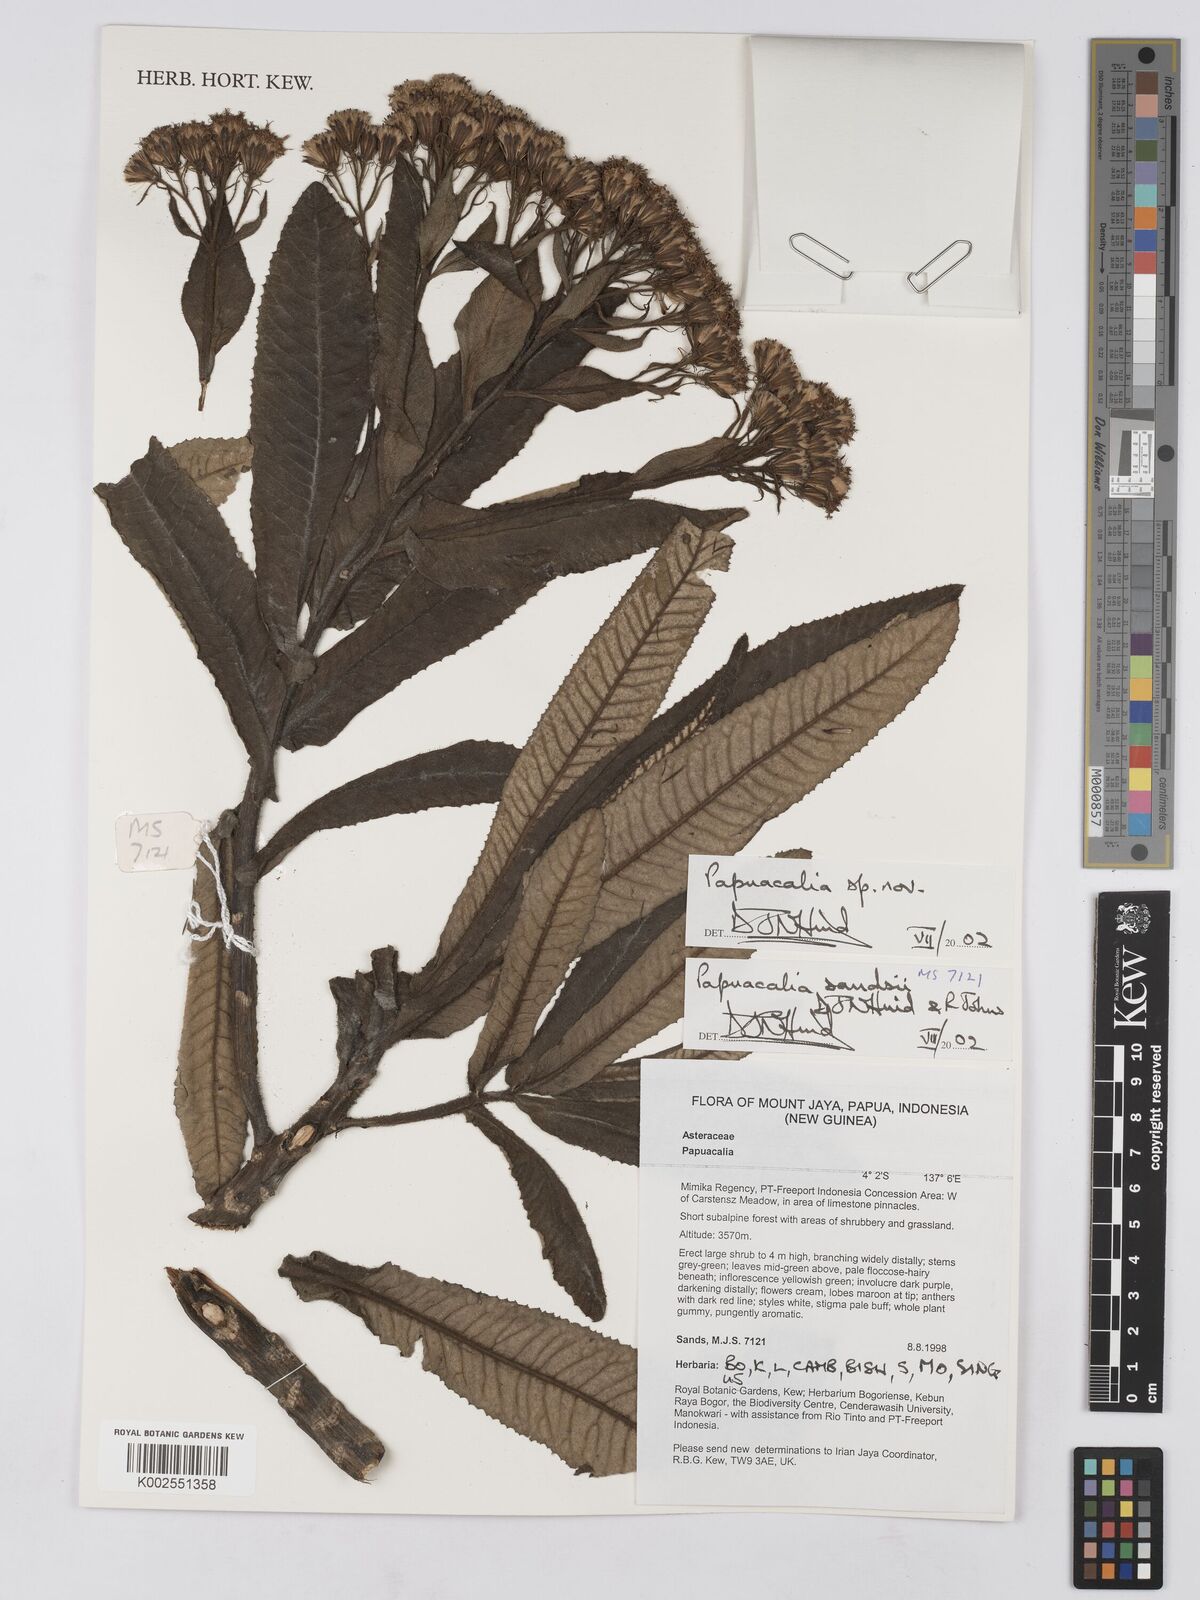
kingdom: Plantae
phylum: Tracheophyta
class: Magnoliopsida
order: Asterales
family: Asteraceae
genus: Papuacalia
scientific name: Papuacalia sandsii
